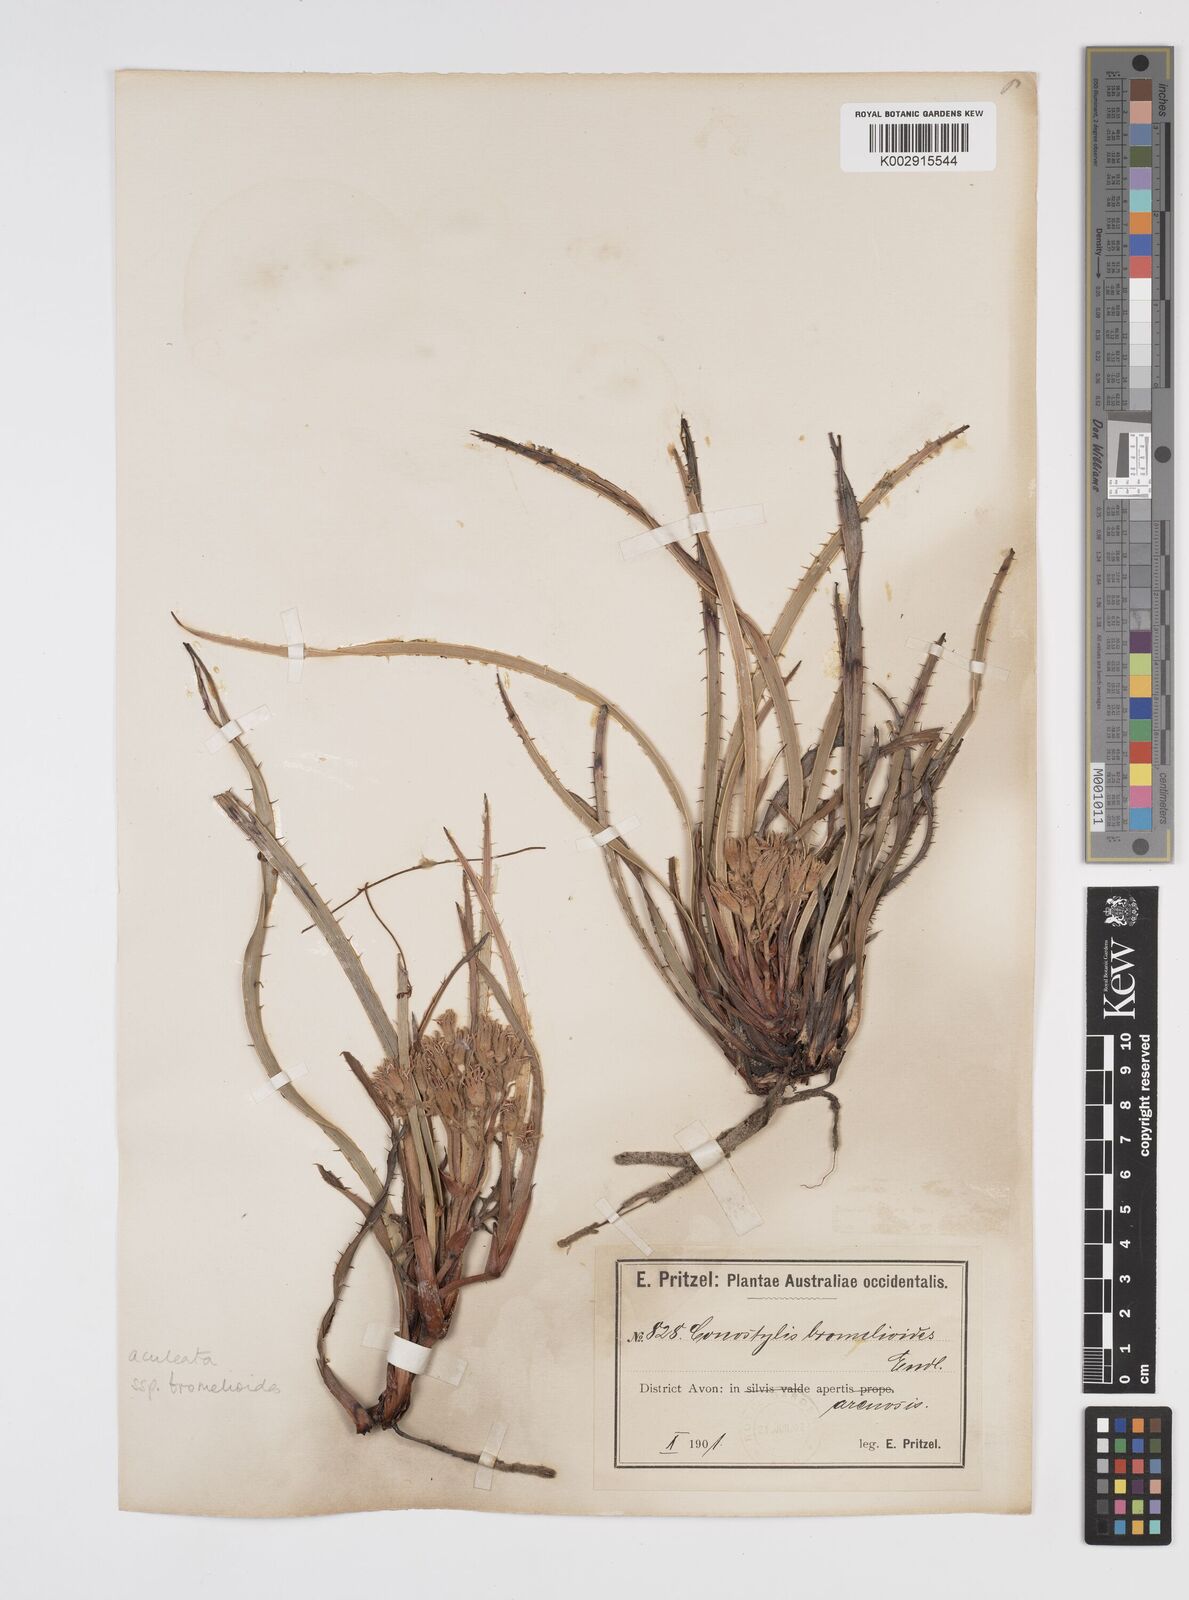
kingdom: Plantae
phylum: Tracheophyta
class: Liliopsida
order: Commelinales
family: Haemodoraceae
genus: Conostylis
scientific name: Conostylis aculeata
